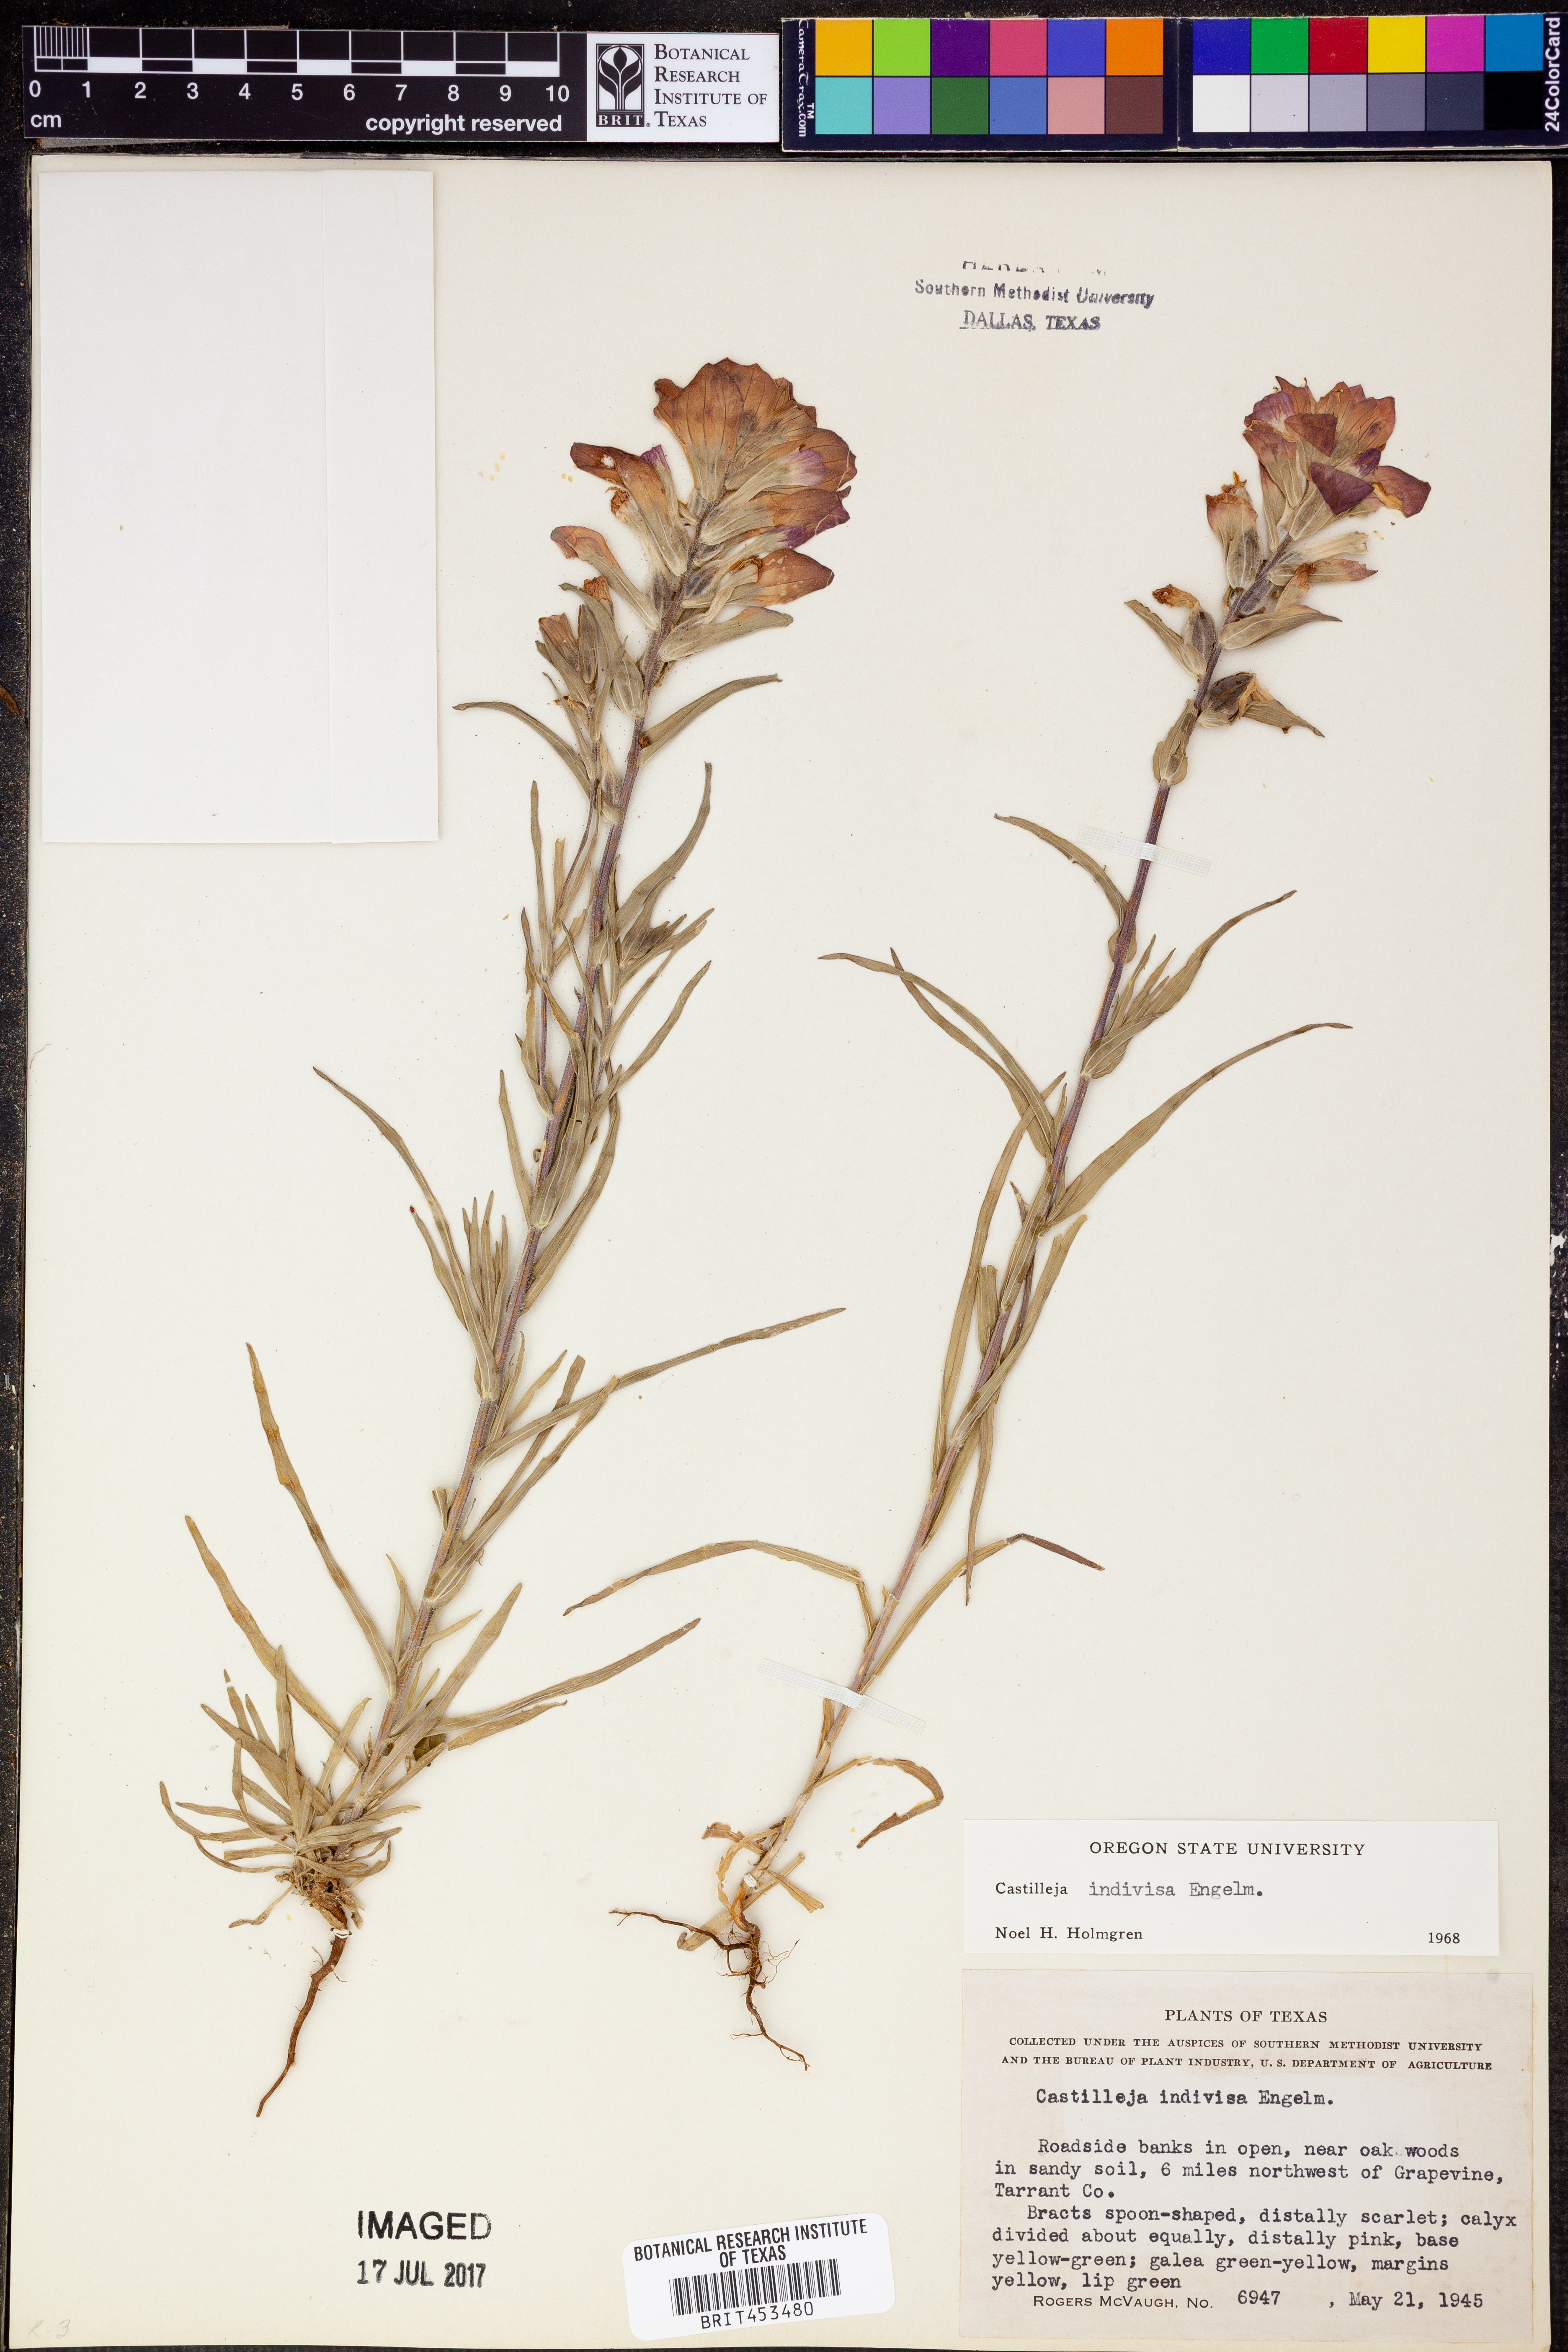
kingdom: Plantae
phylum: Tracheophyta
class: Magnoliopsida
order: Lamiales
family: Orobanchaceae
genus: Castilleja
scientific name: Castilleja indivisa
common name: Texas paintbrush
